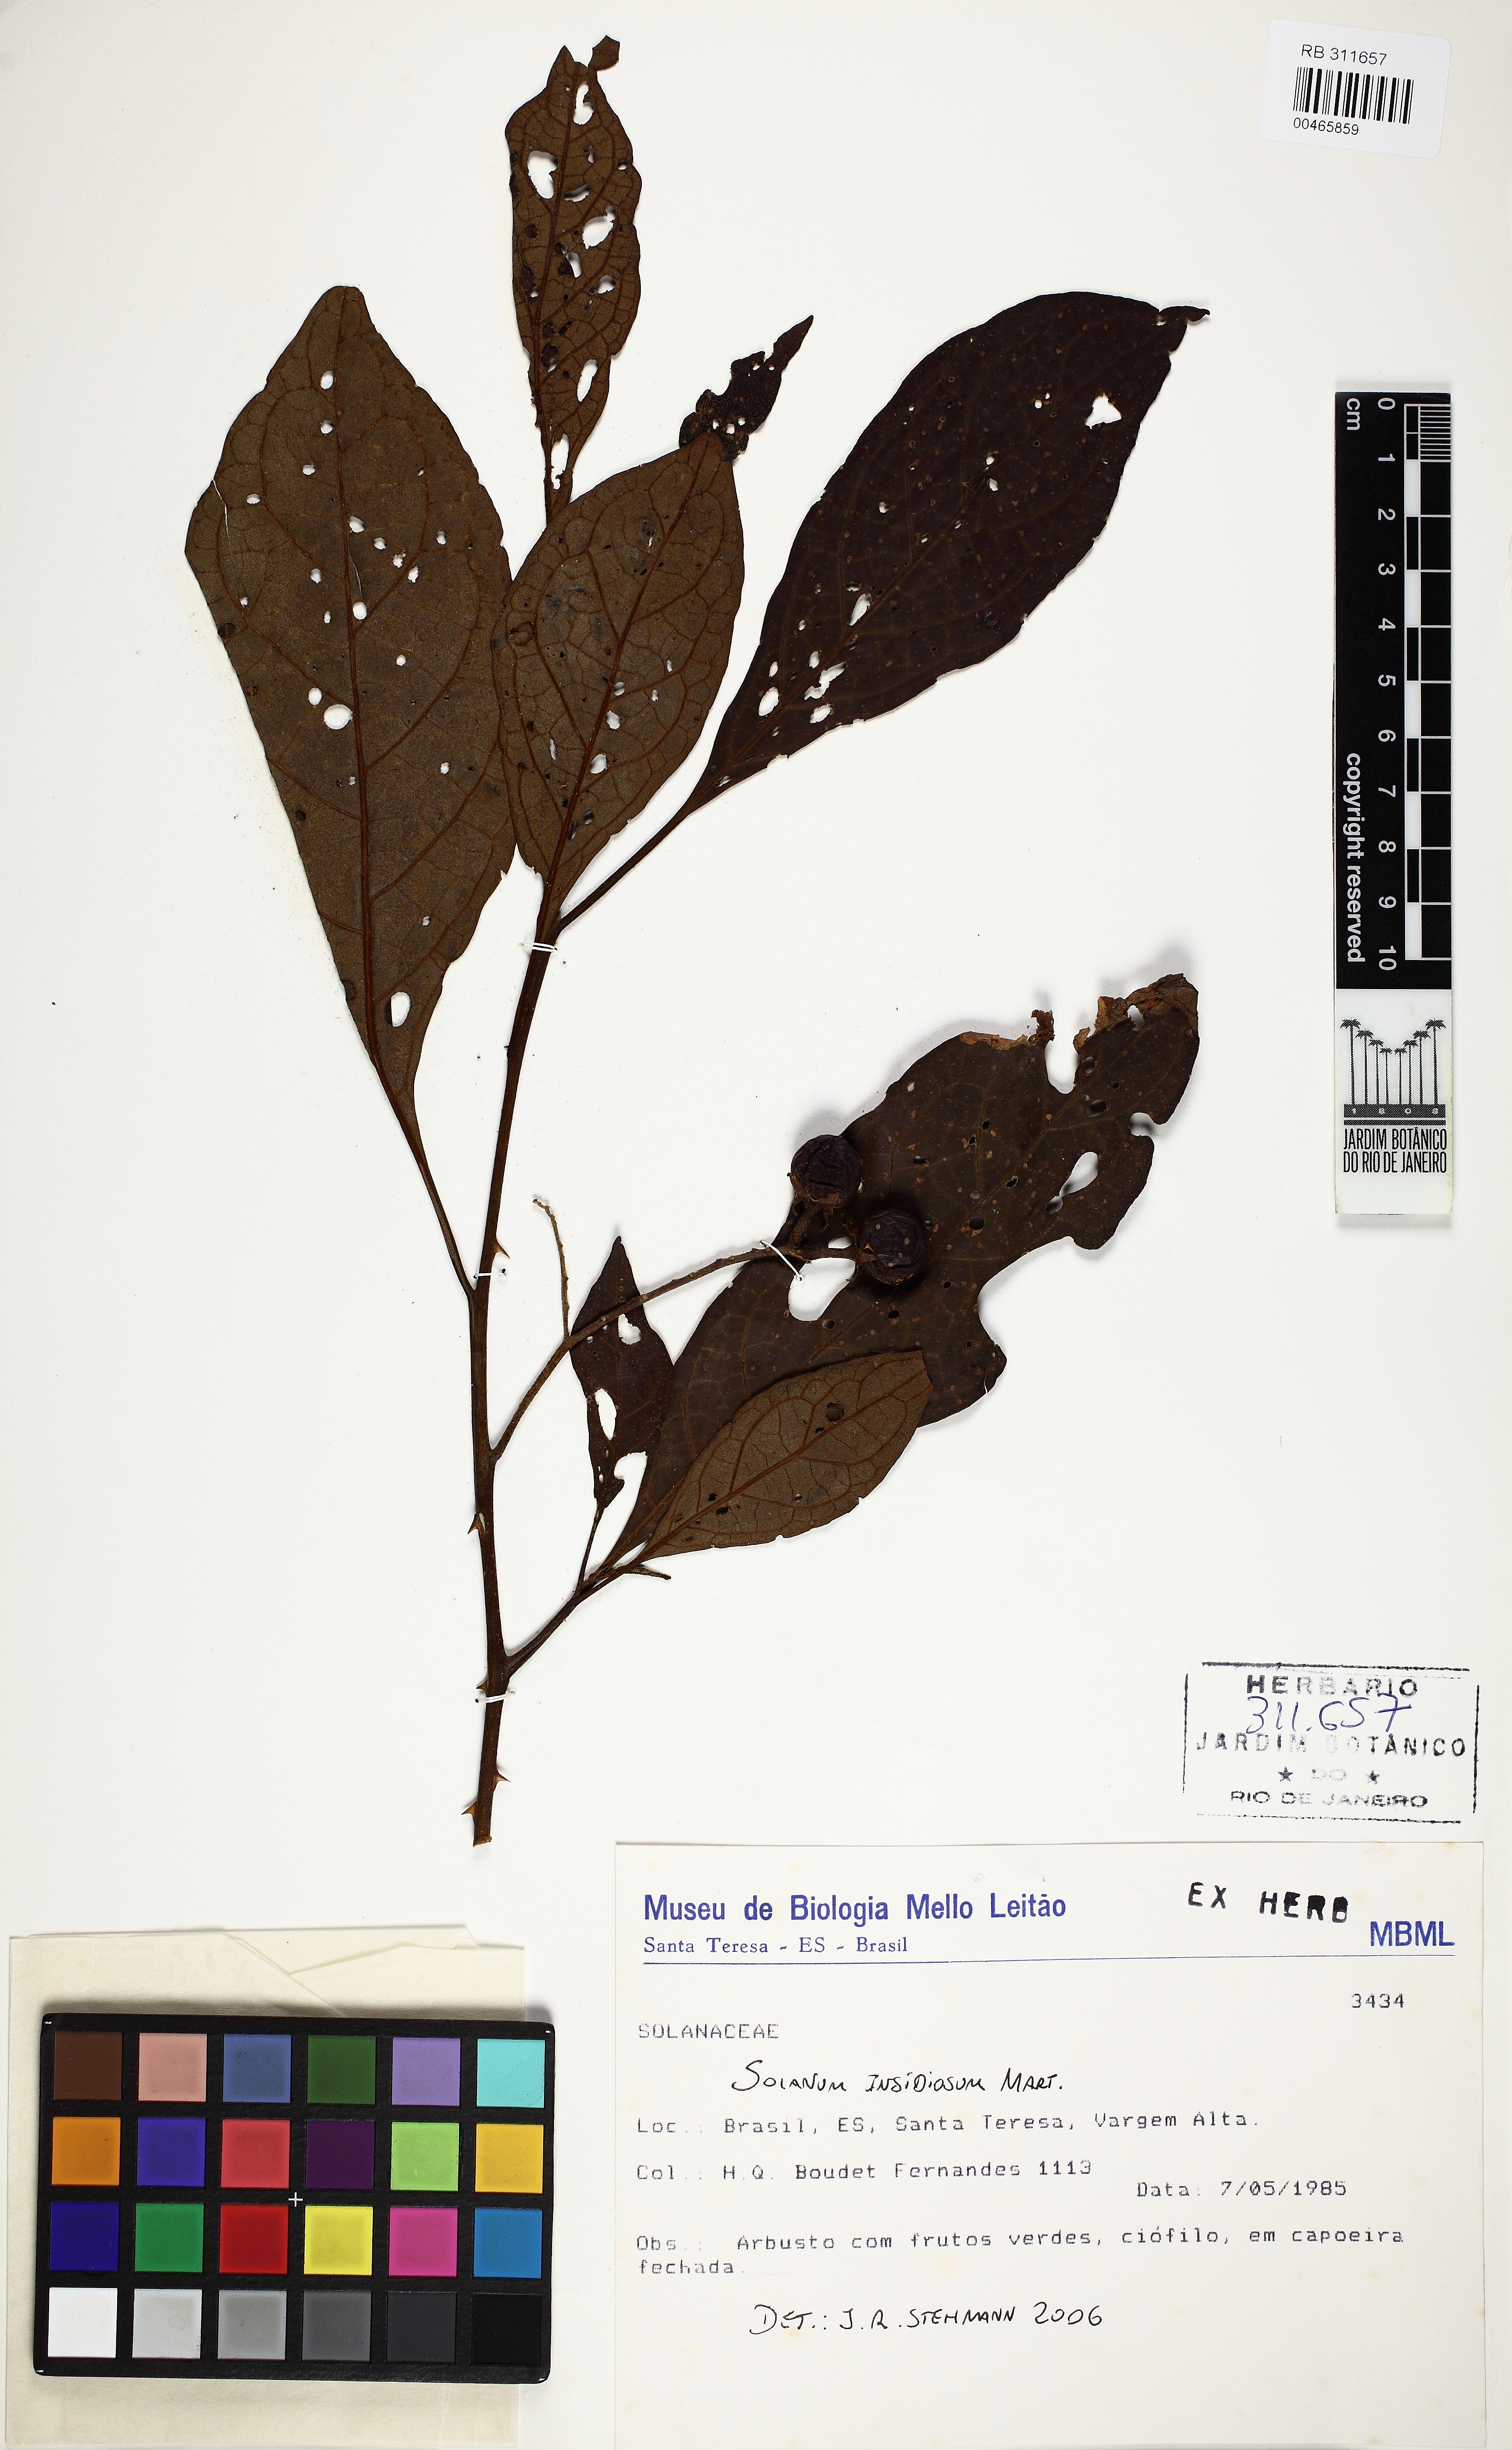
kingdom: Plantae
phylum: Tracheophyta
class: Magnoliopsida
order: Solanales
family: Solanaceae
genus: Solanum
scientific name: Solanum insidiosum
